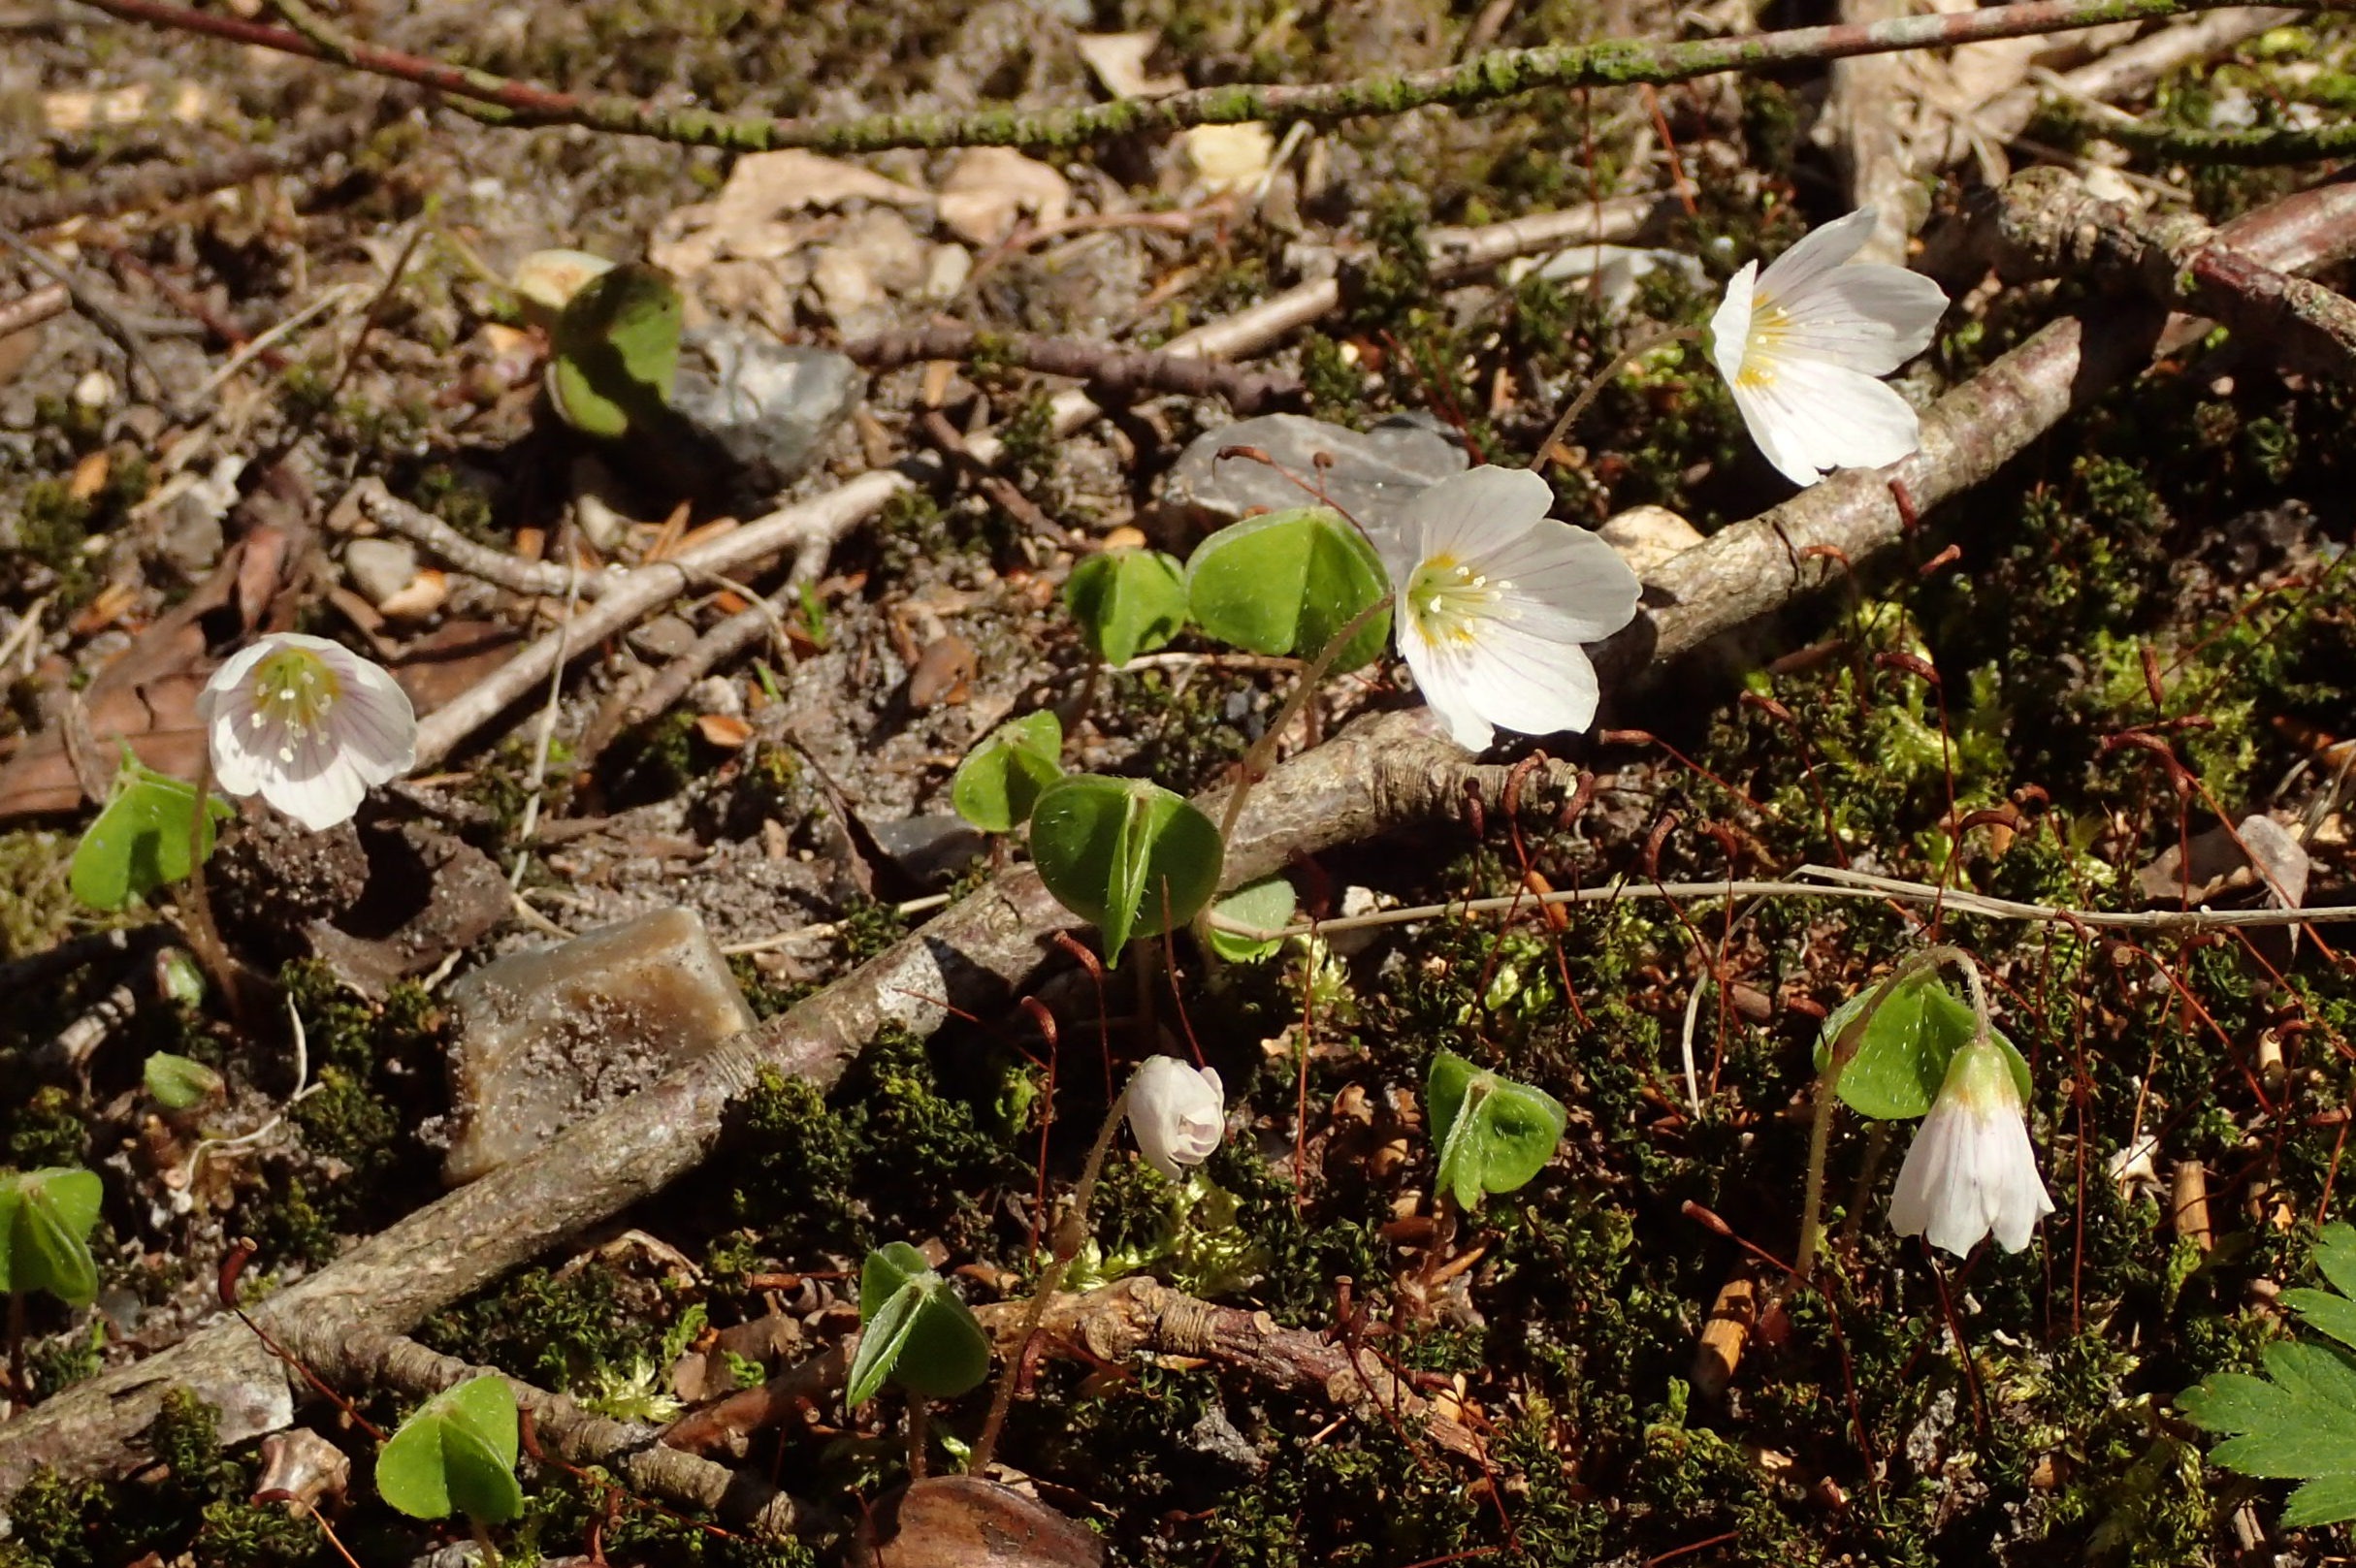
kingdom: Plantae
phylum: Tracheophyta
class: Magnoliopsida
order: Oxalidales
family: Oxalidaceae
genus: Oxalis
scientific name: Oxalis acetosella
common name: Skovsyre
